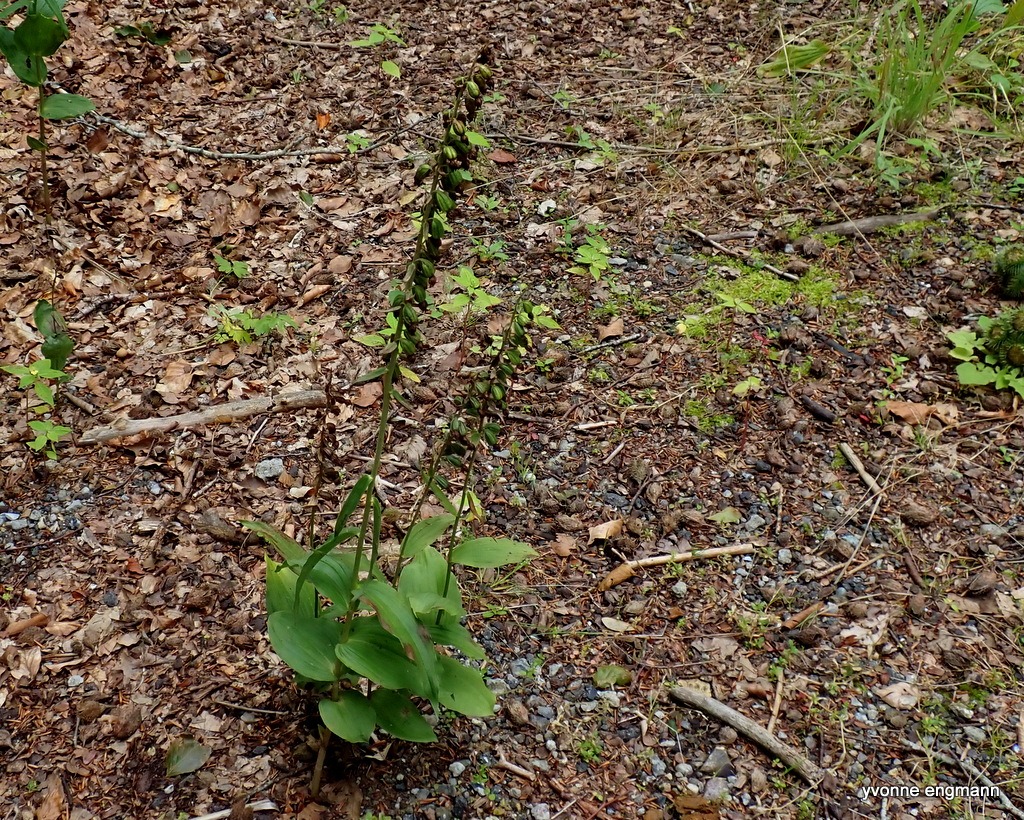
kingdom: Plantae
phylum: Tracheophyta
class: Liliopsida
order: Asparagales
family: Orchidaceae
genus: Epipactis
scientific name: Epipactis helleborine
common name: Skov-hullæbe
